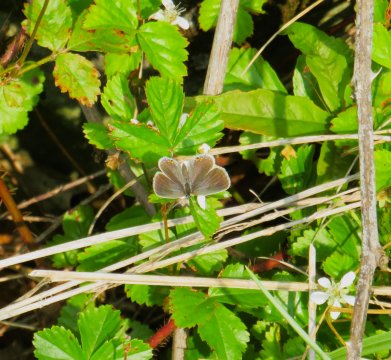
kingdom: Animalia
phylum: Arthropoda
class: Insecta
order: Lepidoptera
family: Lycaenidae
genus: Elkalyce
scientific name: Elkalyce comyntas
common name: Eastern Tailed-Blue
